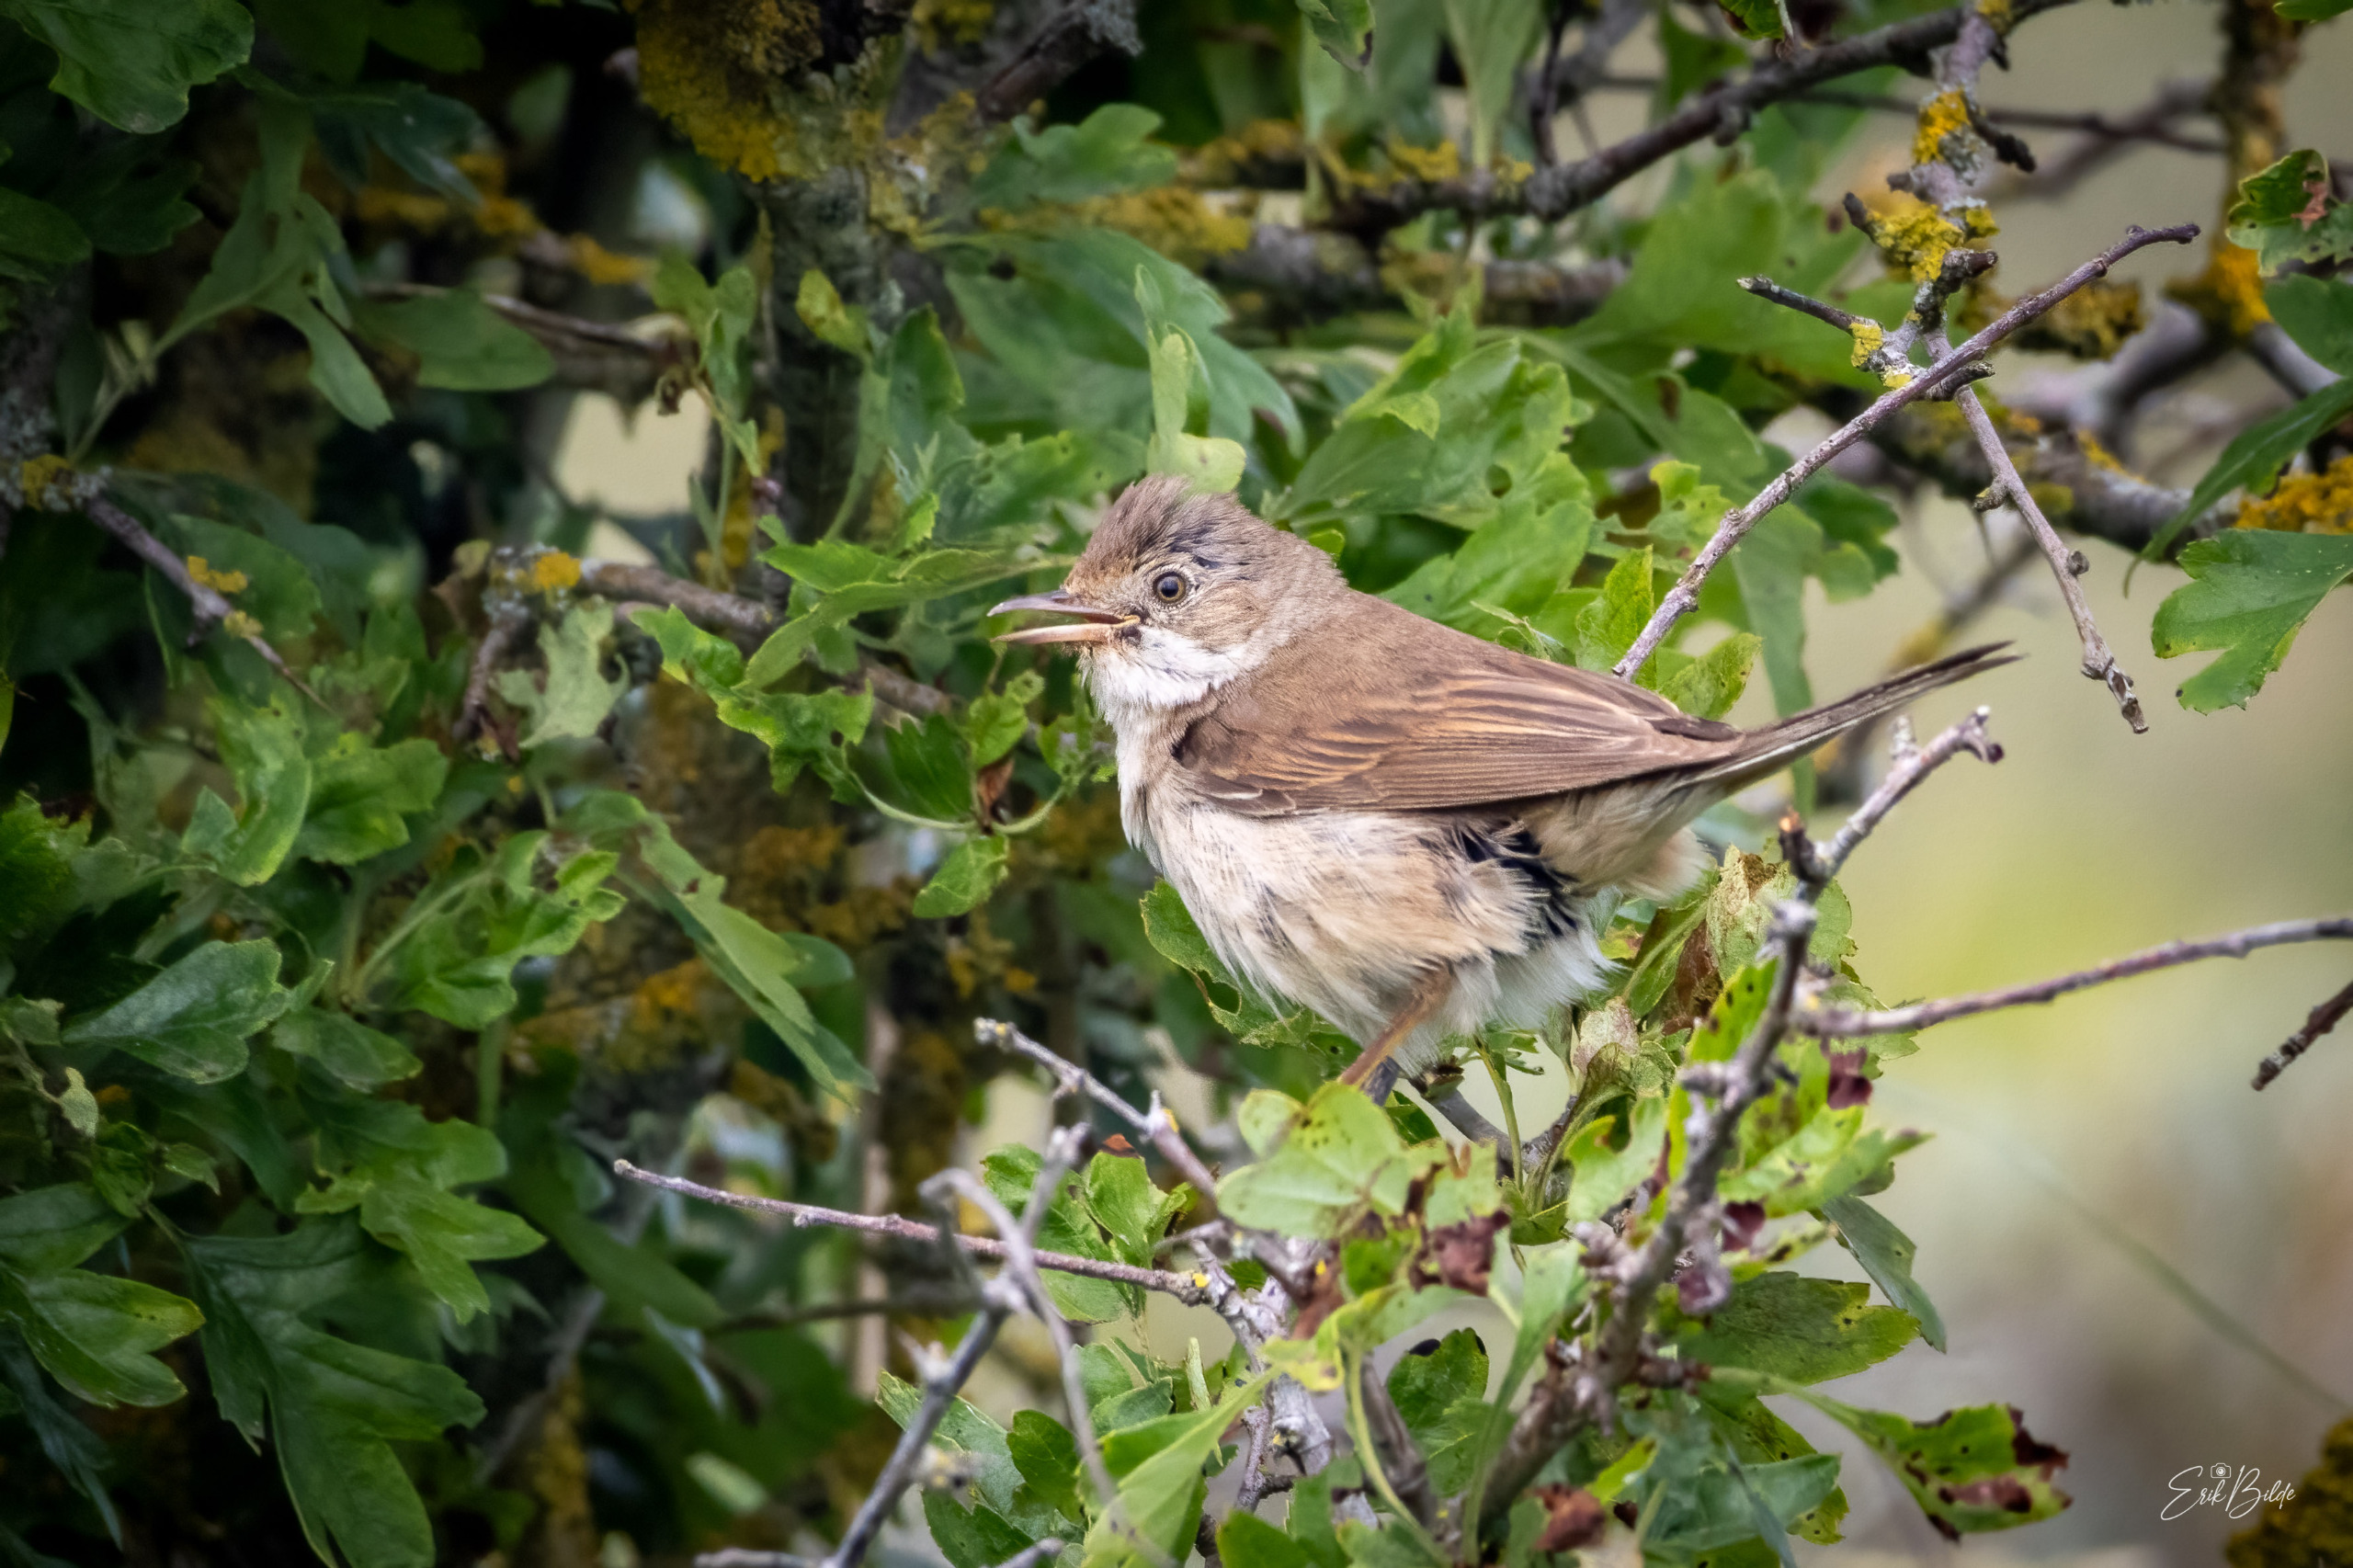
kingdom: Animalia
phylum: Chordata
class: Aves
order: Passeriformes
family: Sylviidae
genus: Sylvia
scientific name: Sylvia communis
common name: Tornsanger
